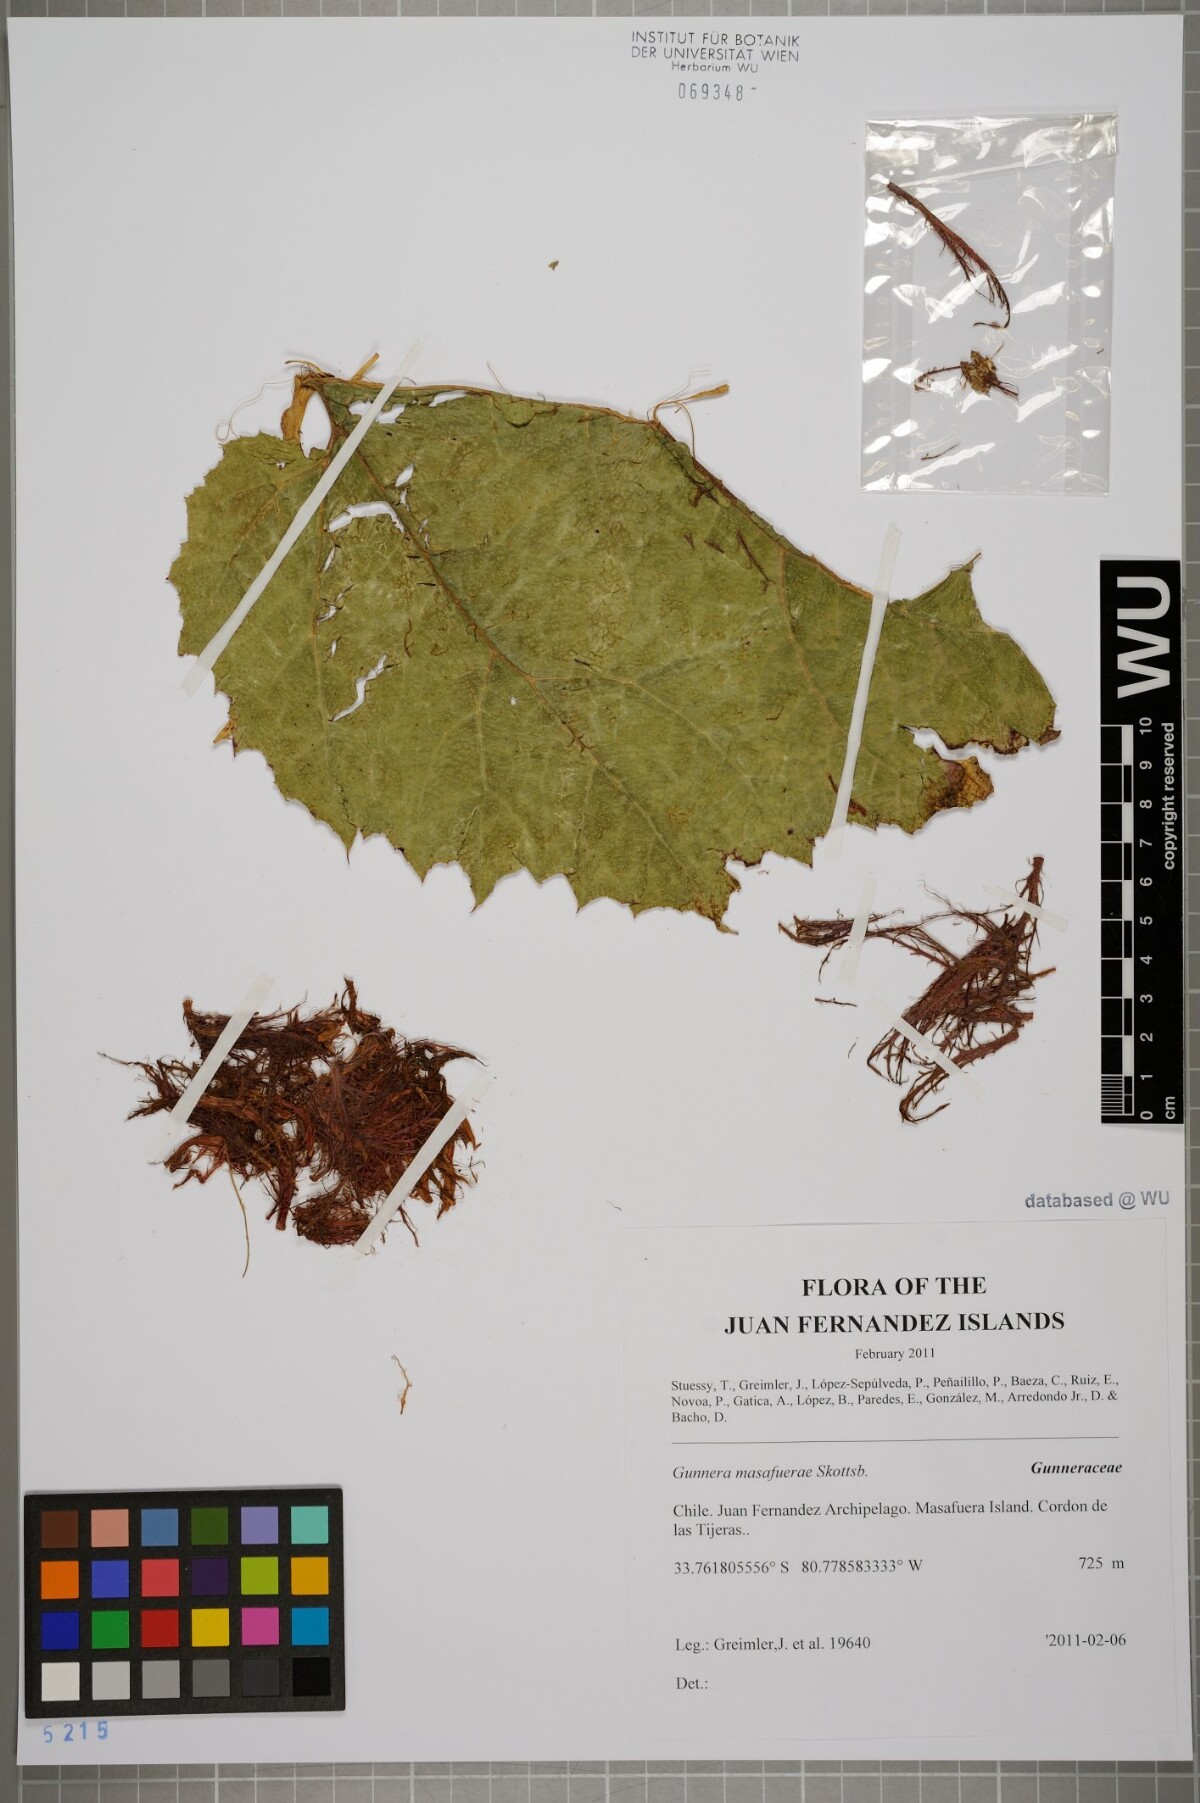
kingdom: Plantae
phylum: Tracheophyta
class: Magnoliopsida
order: Gunnerales
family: Gunneraceae
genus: Gunnera
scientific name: Gunnera masafuerae
